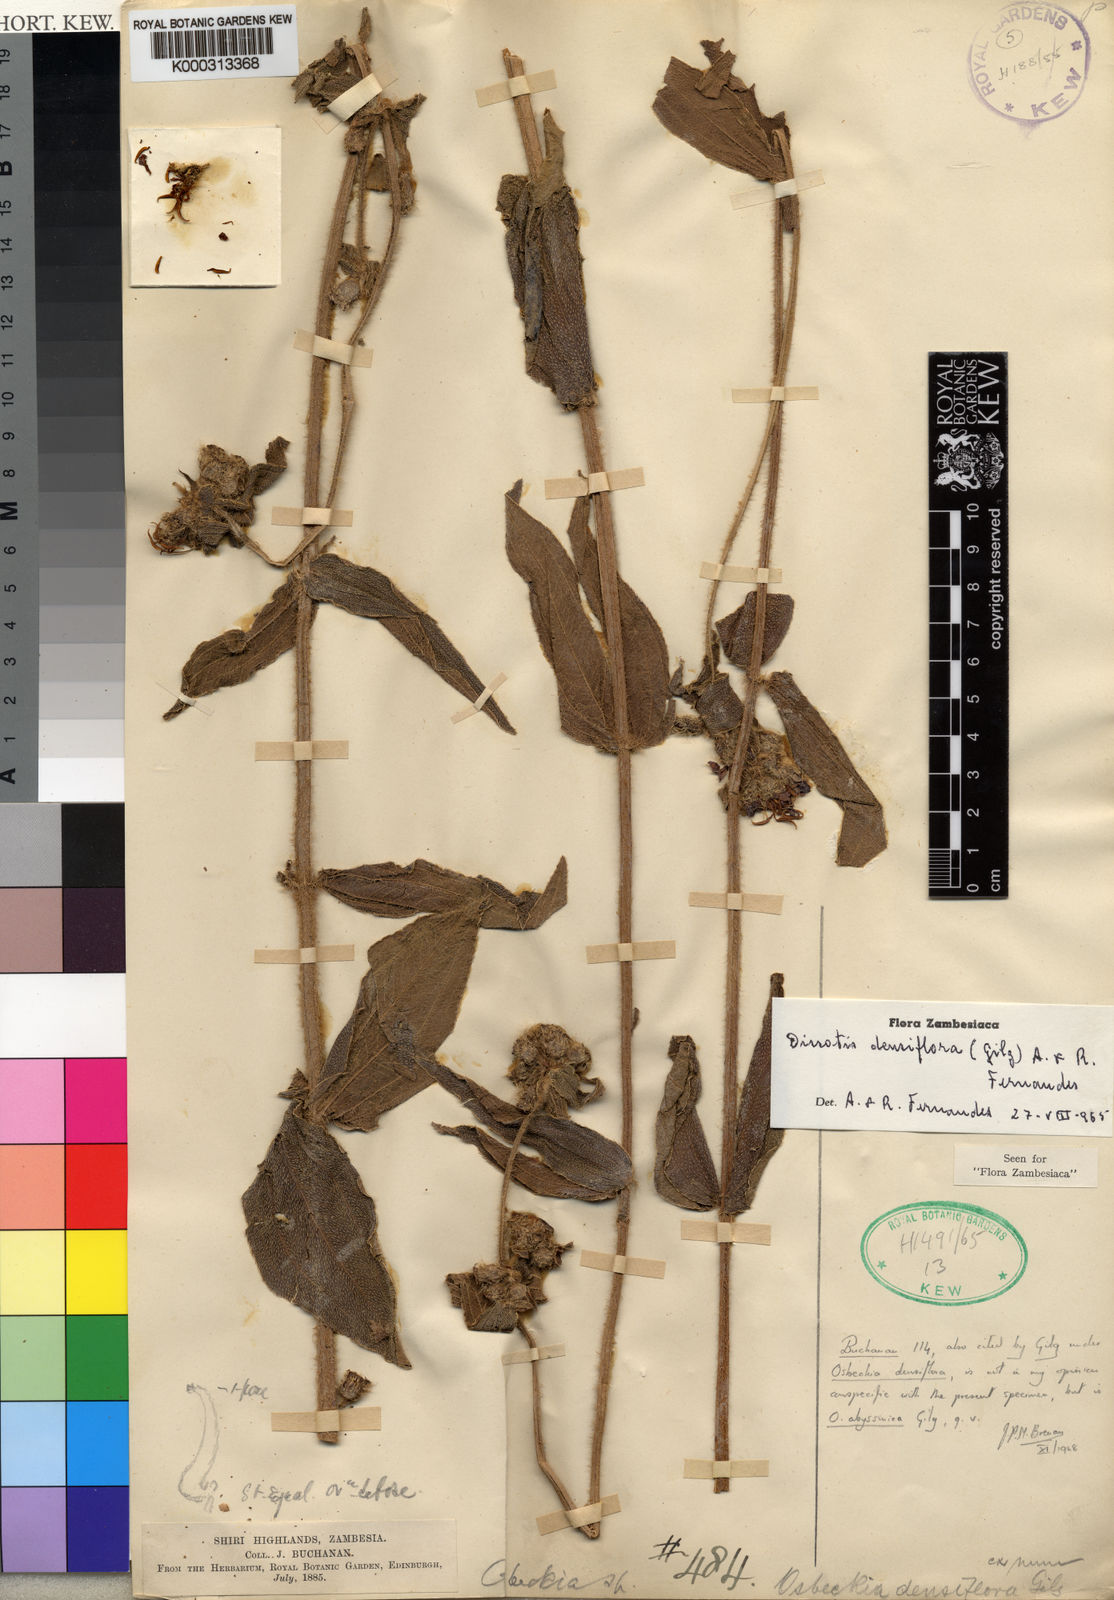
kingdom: Plantae
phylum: Tracheophyta
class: Magnoliopsida
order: Myrtales
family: Melastomataceae
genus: Antherotoma
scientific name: Antherotoma
